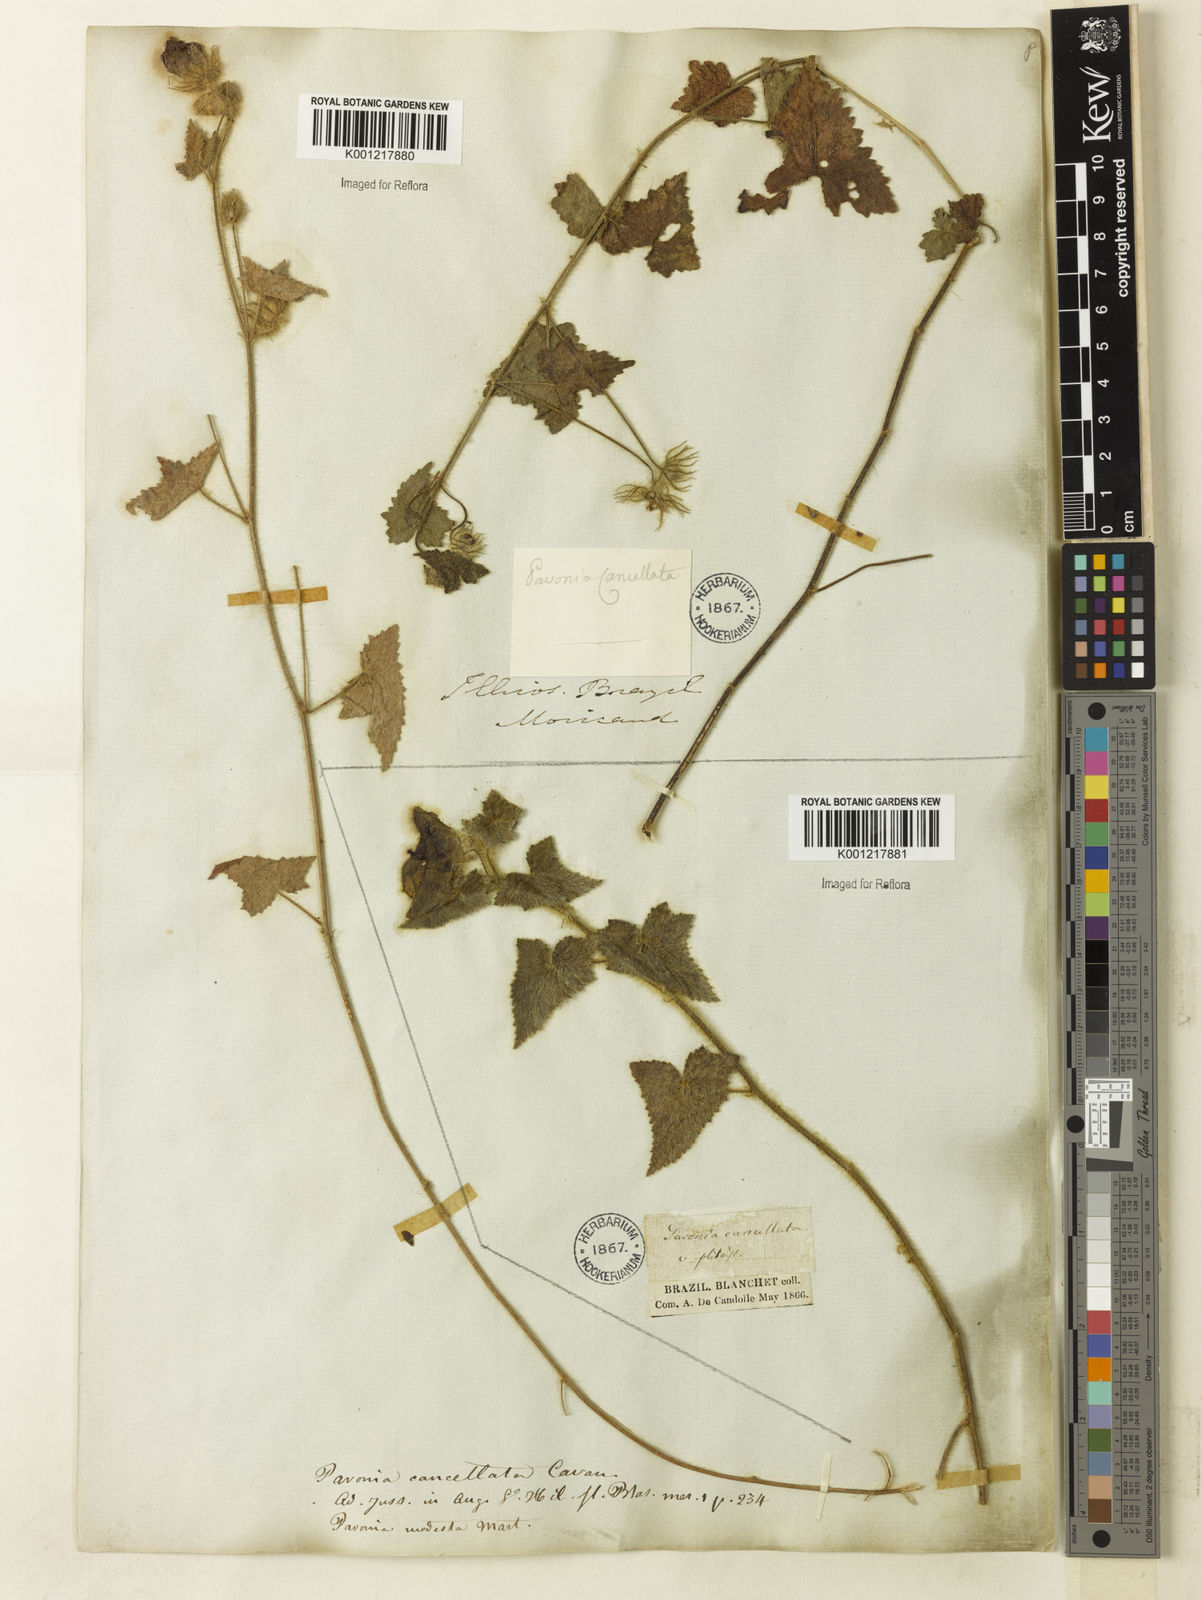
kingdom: Plantae
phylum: Tracheophyta
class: Magnoliopsida
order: Malvales
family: Malvaceae
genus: Pavonia
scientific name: Pavonia cancellata
